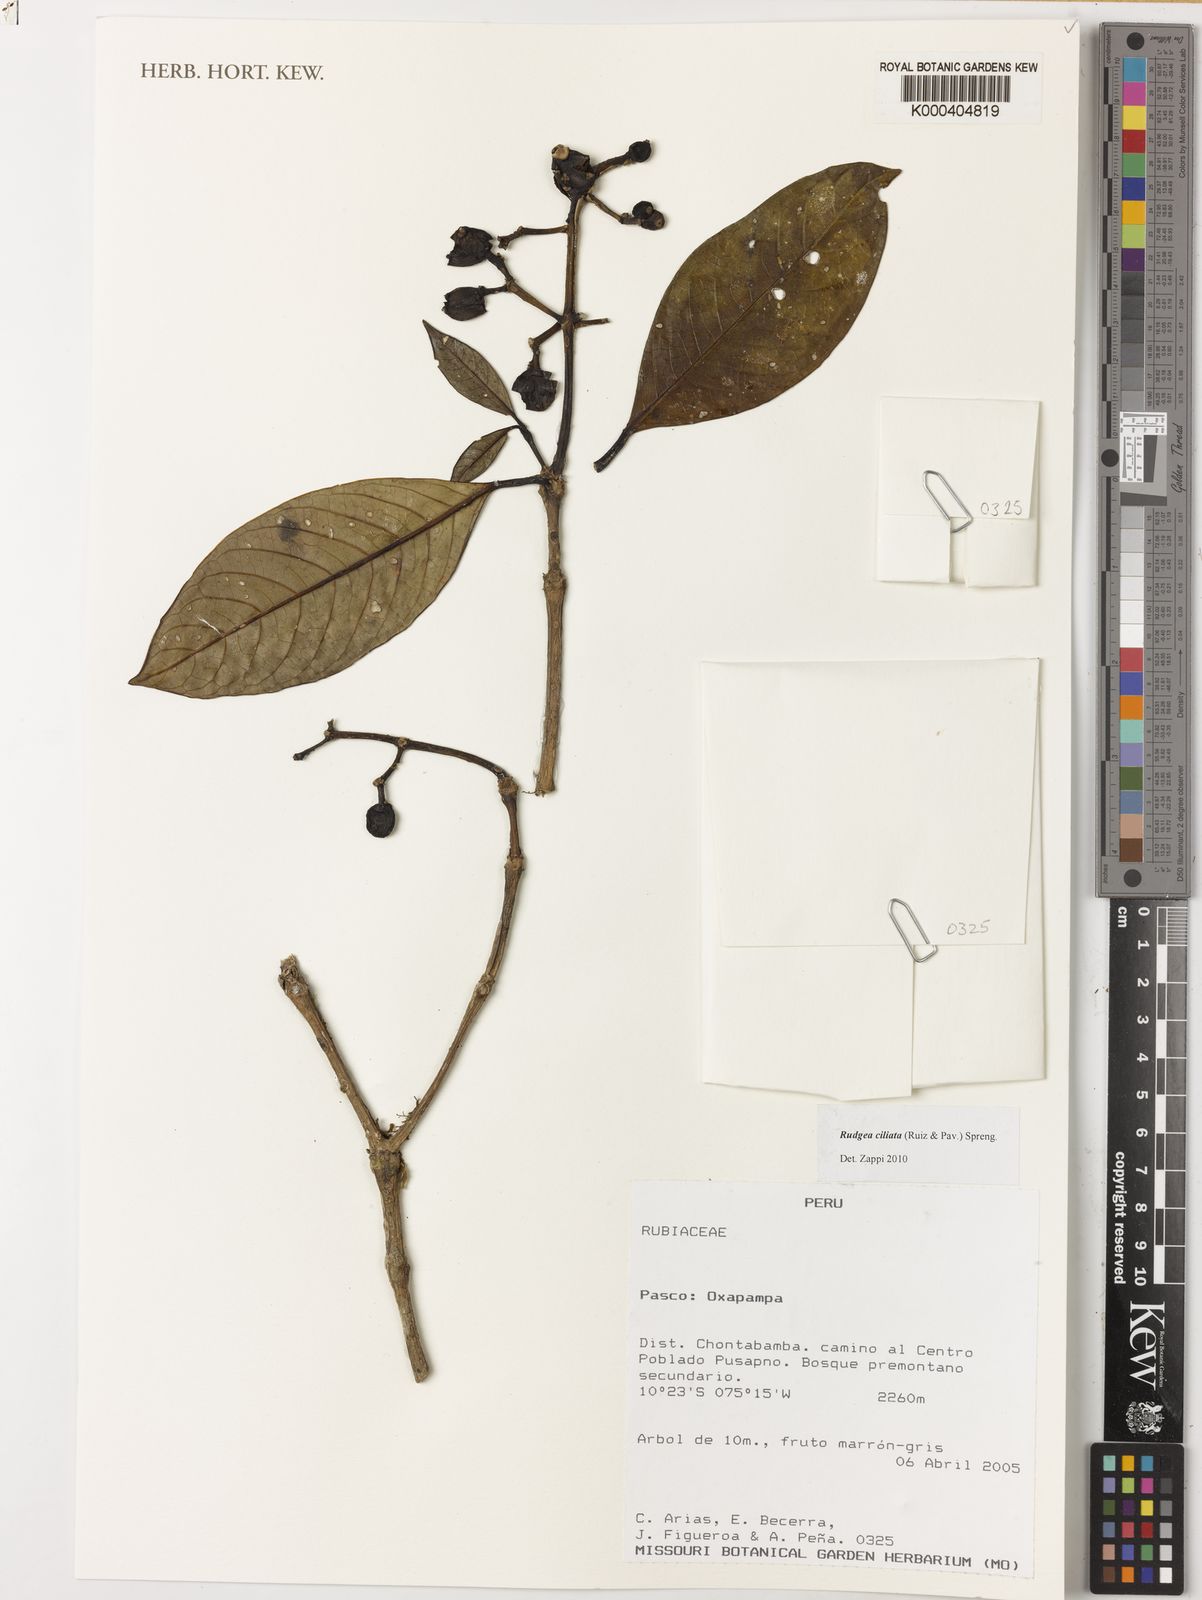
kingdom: Plantae
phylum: Tracheophyta
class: Magnoliopsida
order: Gentianales
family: Rubiaceae
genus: Rudgea
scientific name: Rudgea ciliata
